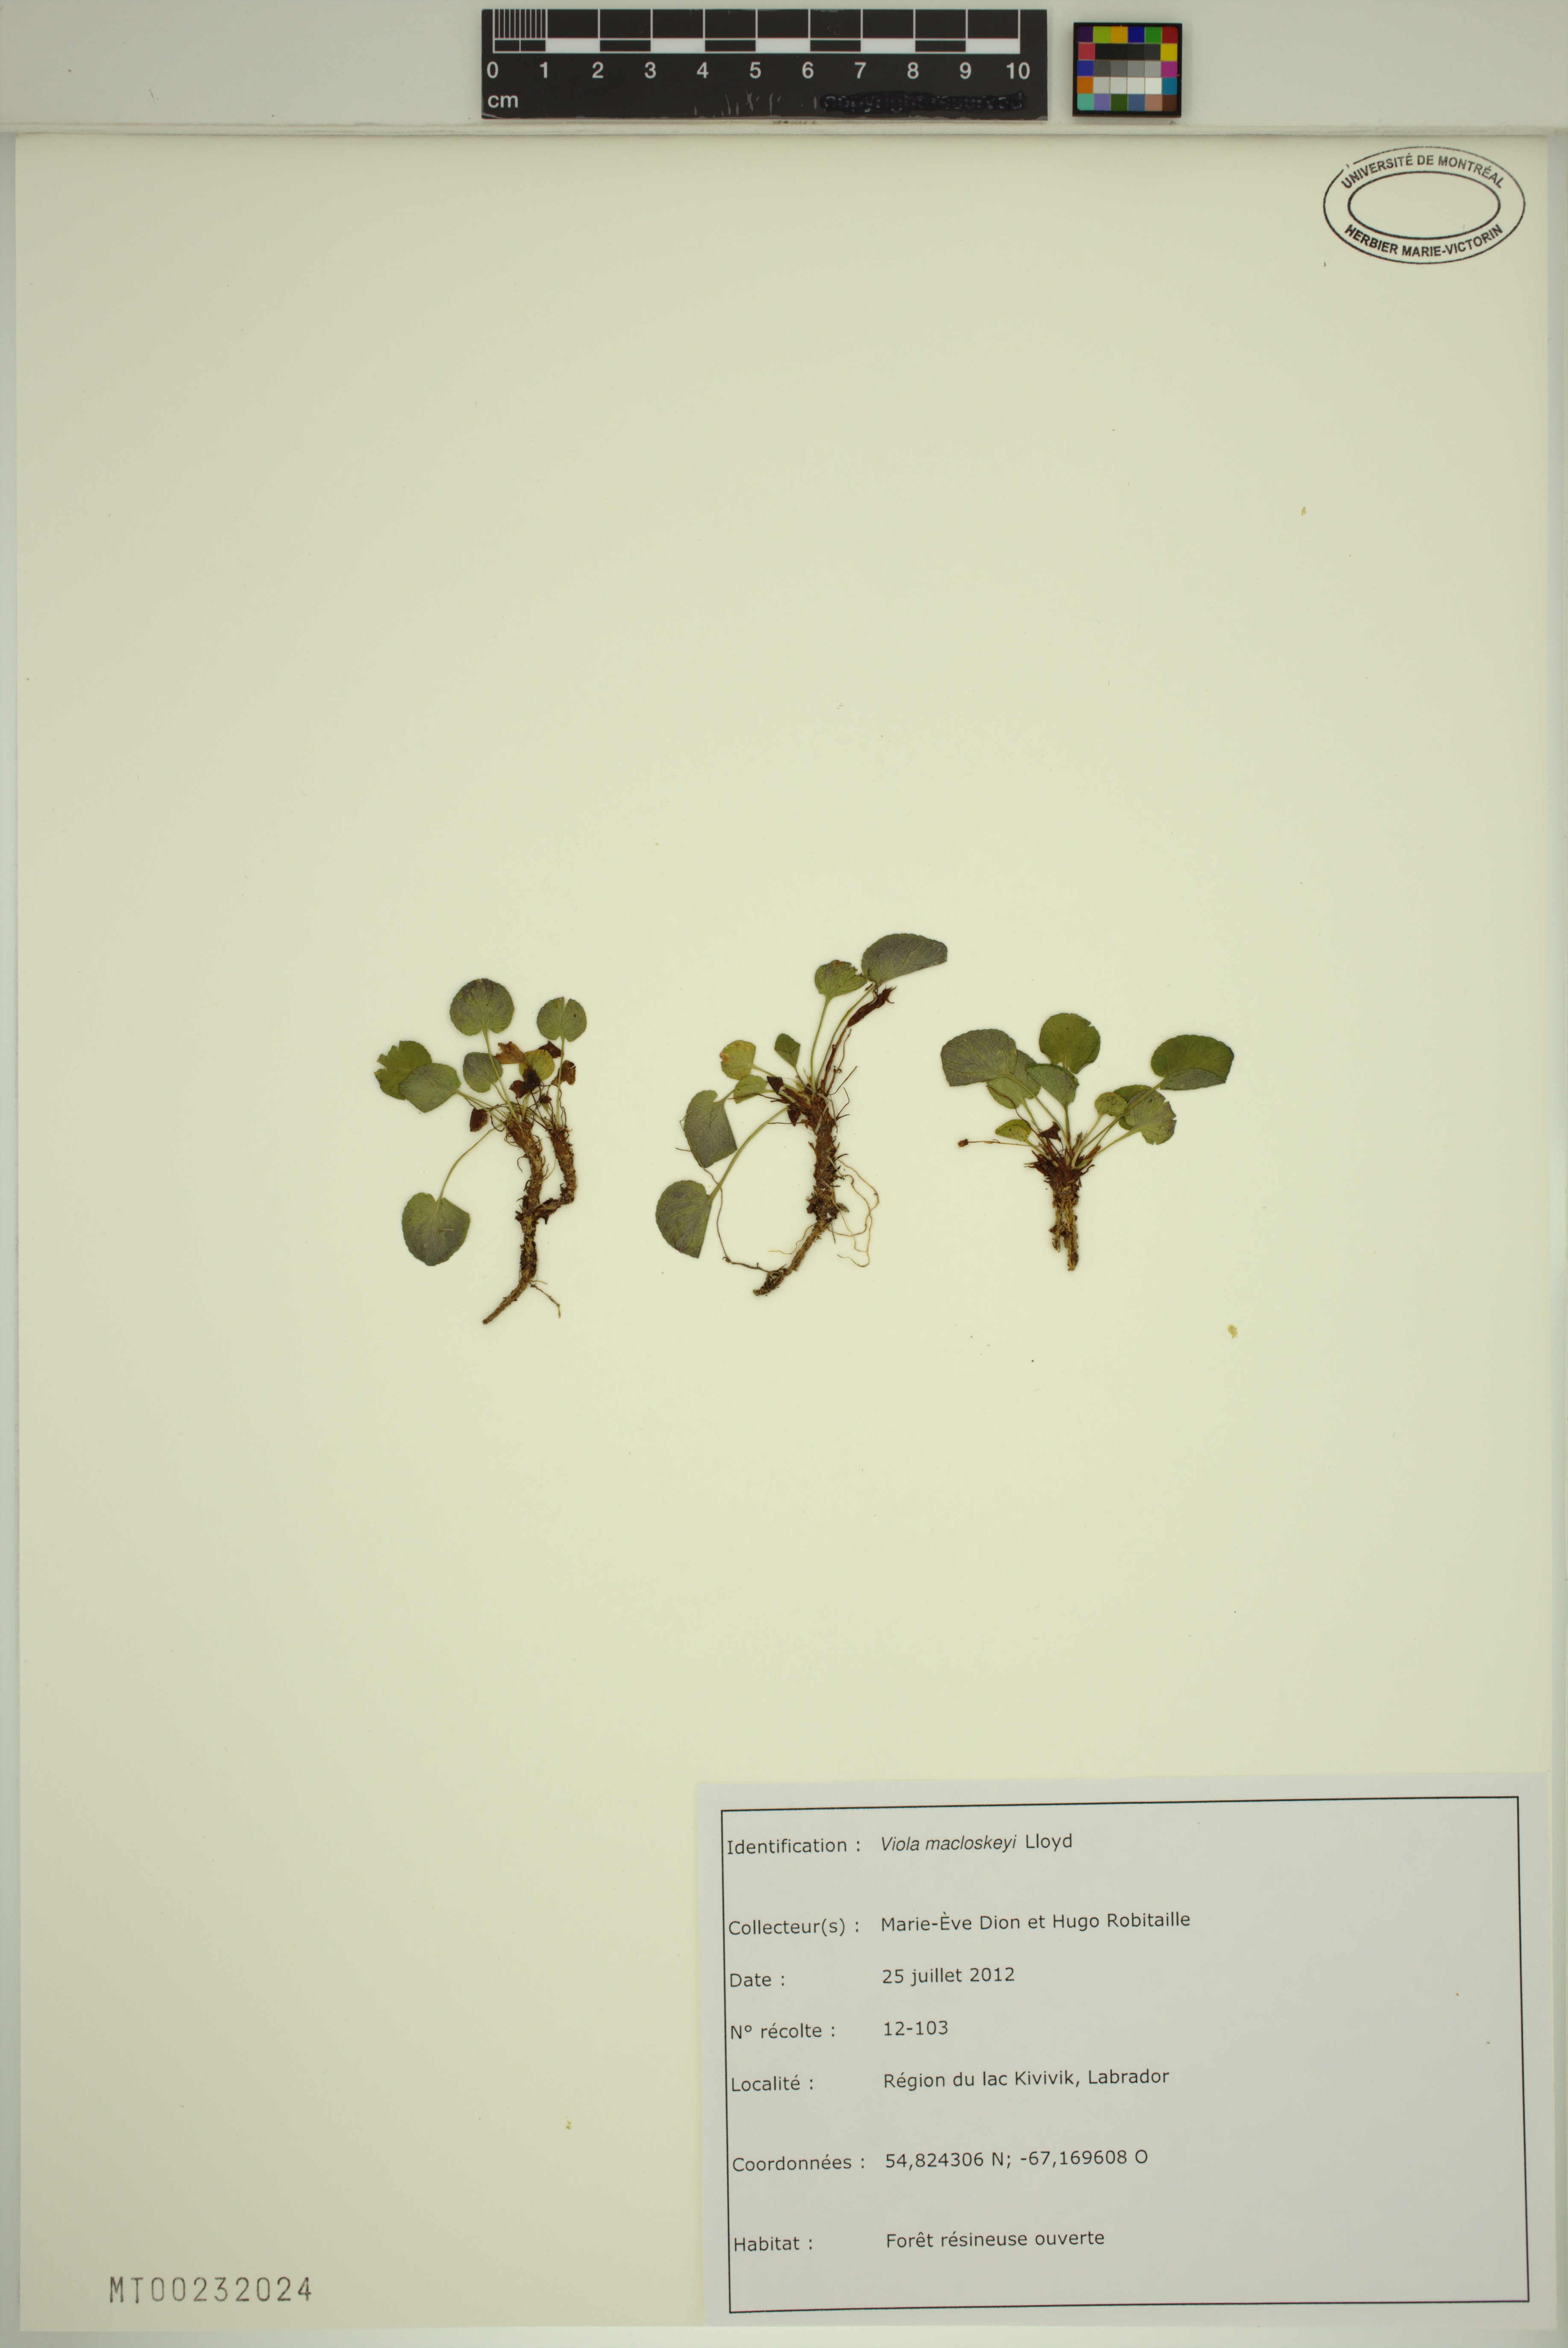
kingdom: Plantae
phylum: Tracheophyta
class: Magnoliopsida
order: Malpighiales
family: Violaceae
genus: Viola
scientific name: Viola macloskeyi
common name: Macloskey's violet
